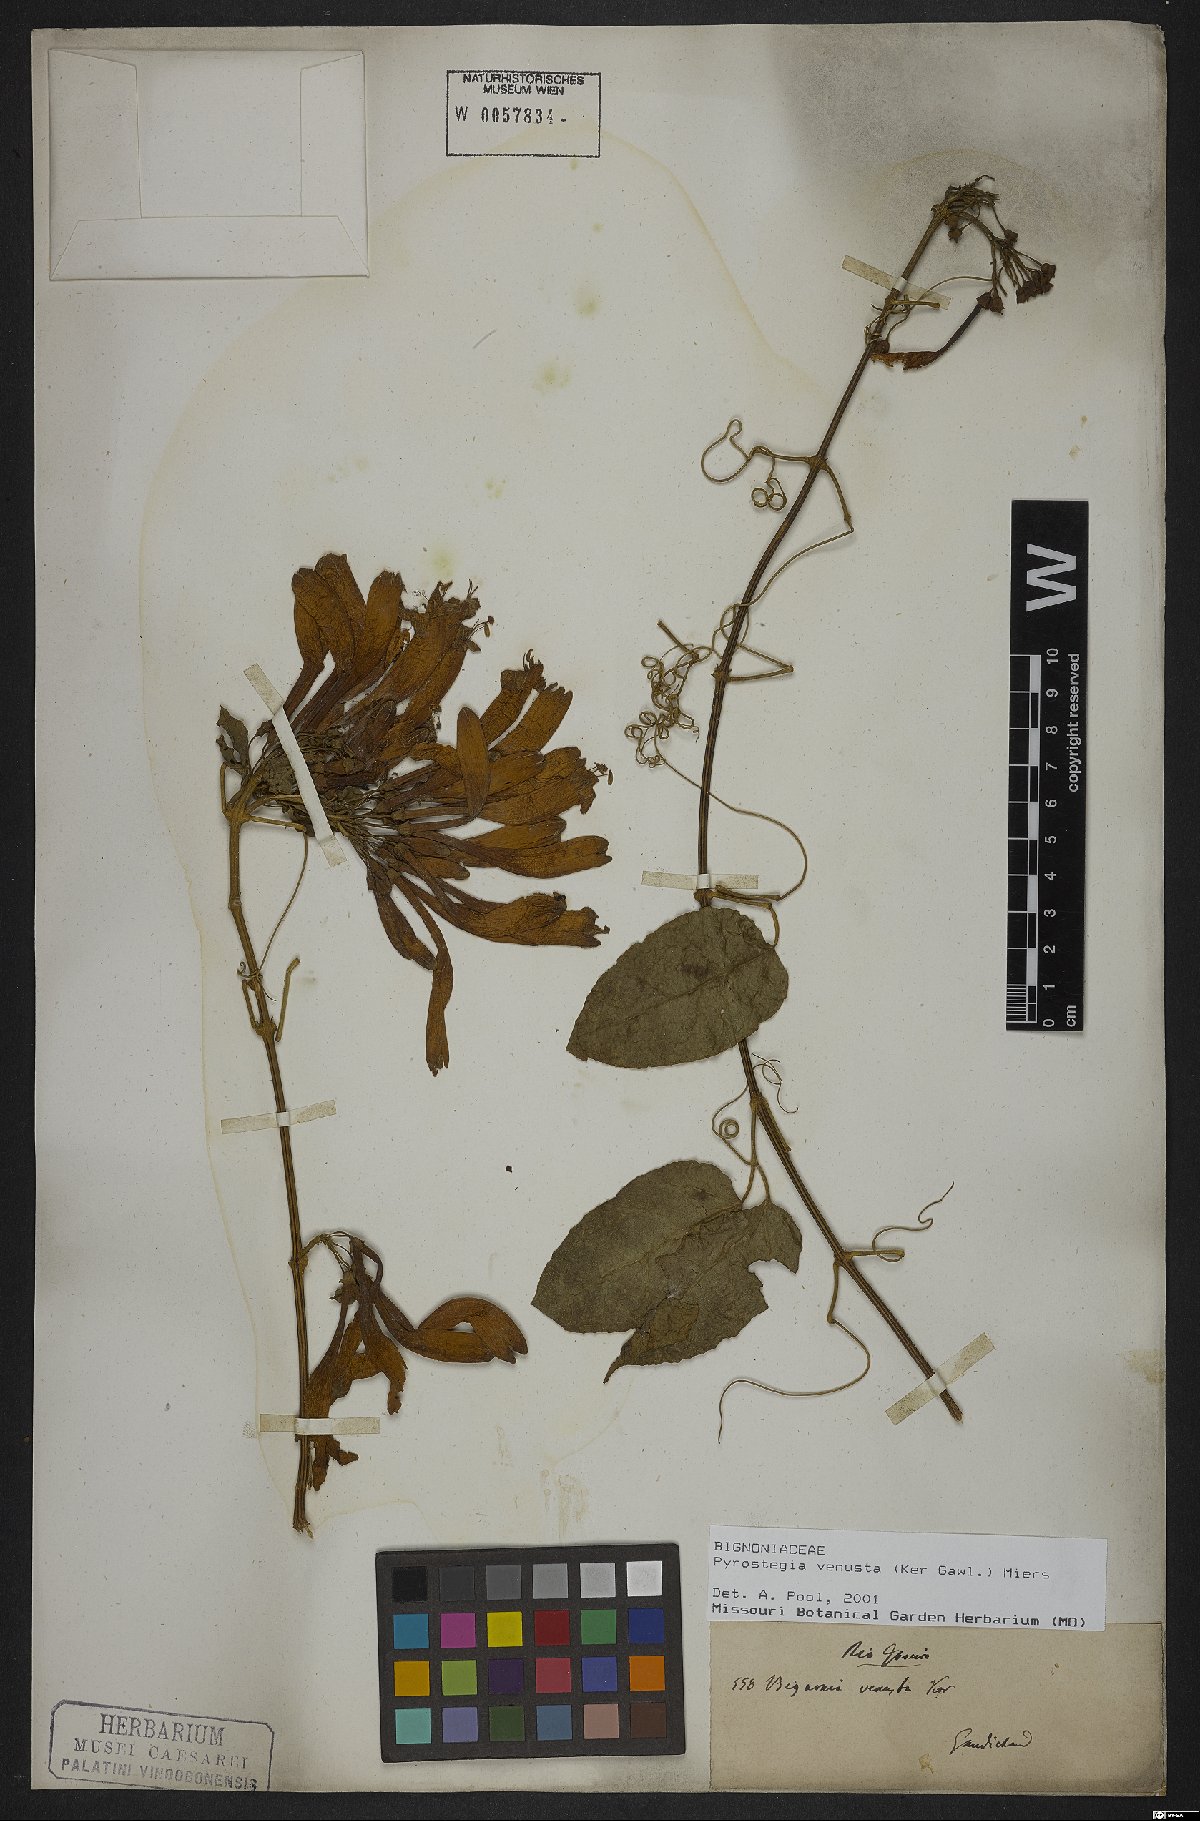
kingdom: Plantae
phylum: Tracheophyta
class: Magnoliopsida
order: Lamiales
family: Bignoniaceae
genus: Pyrostegia
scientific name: Pyrostegia venusta
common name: Flamevine
